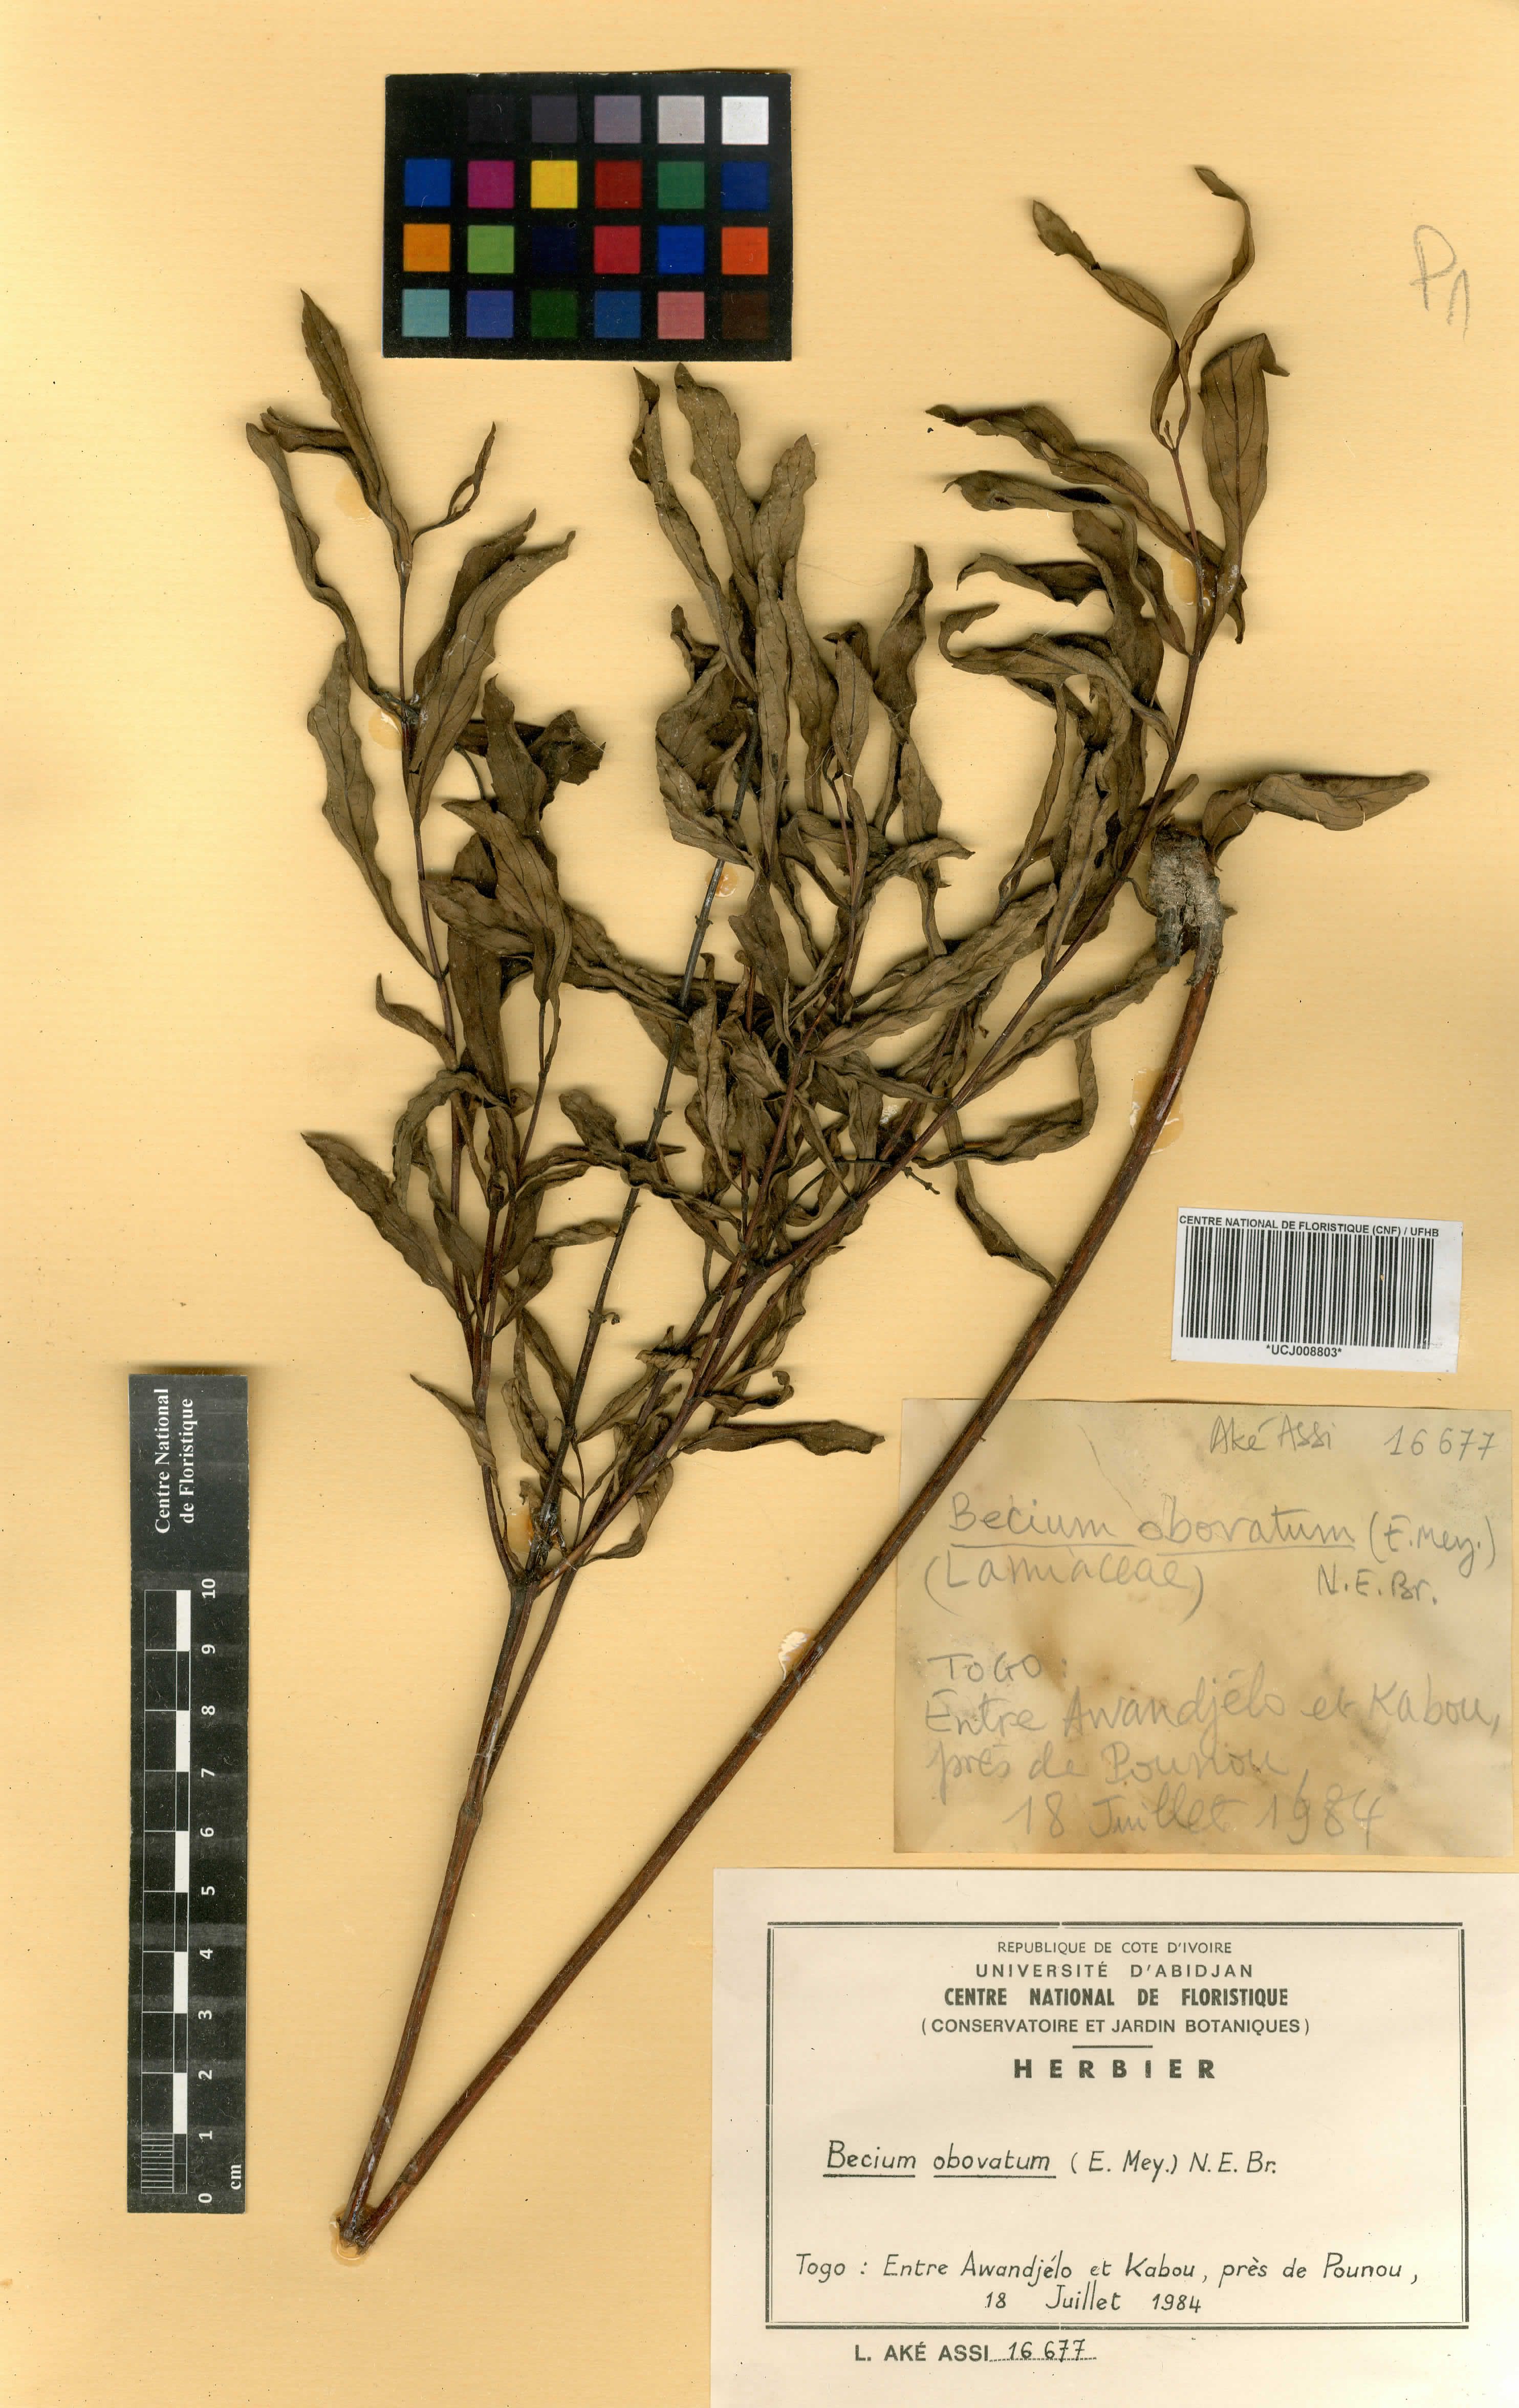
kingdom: Plantae
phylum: Tracheophyta
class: Magnoliopsida
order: Lamiales
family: Lamiaceae
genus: Ocimum
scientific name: Ocimum obovatum
